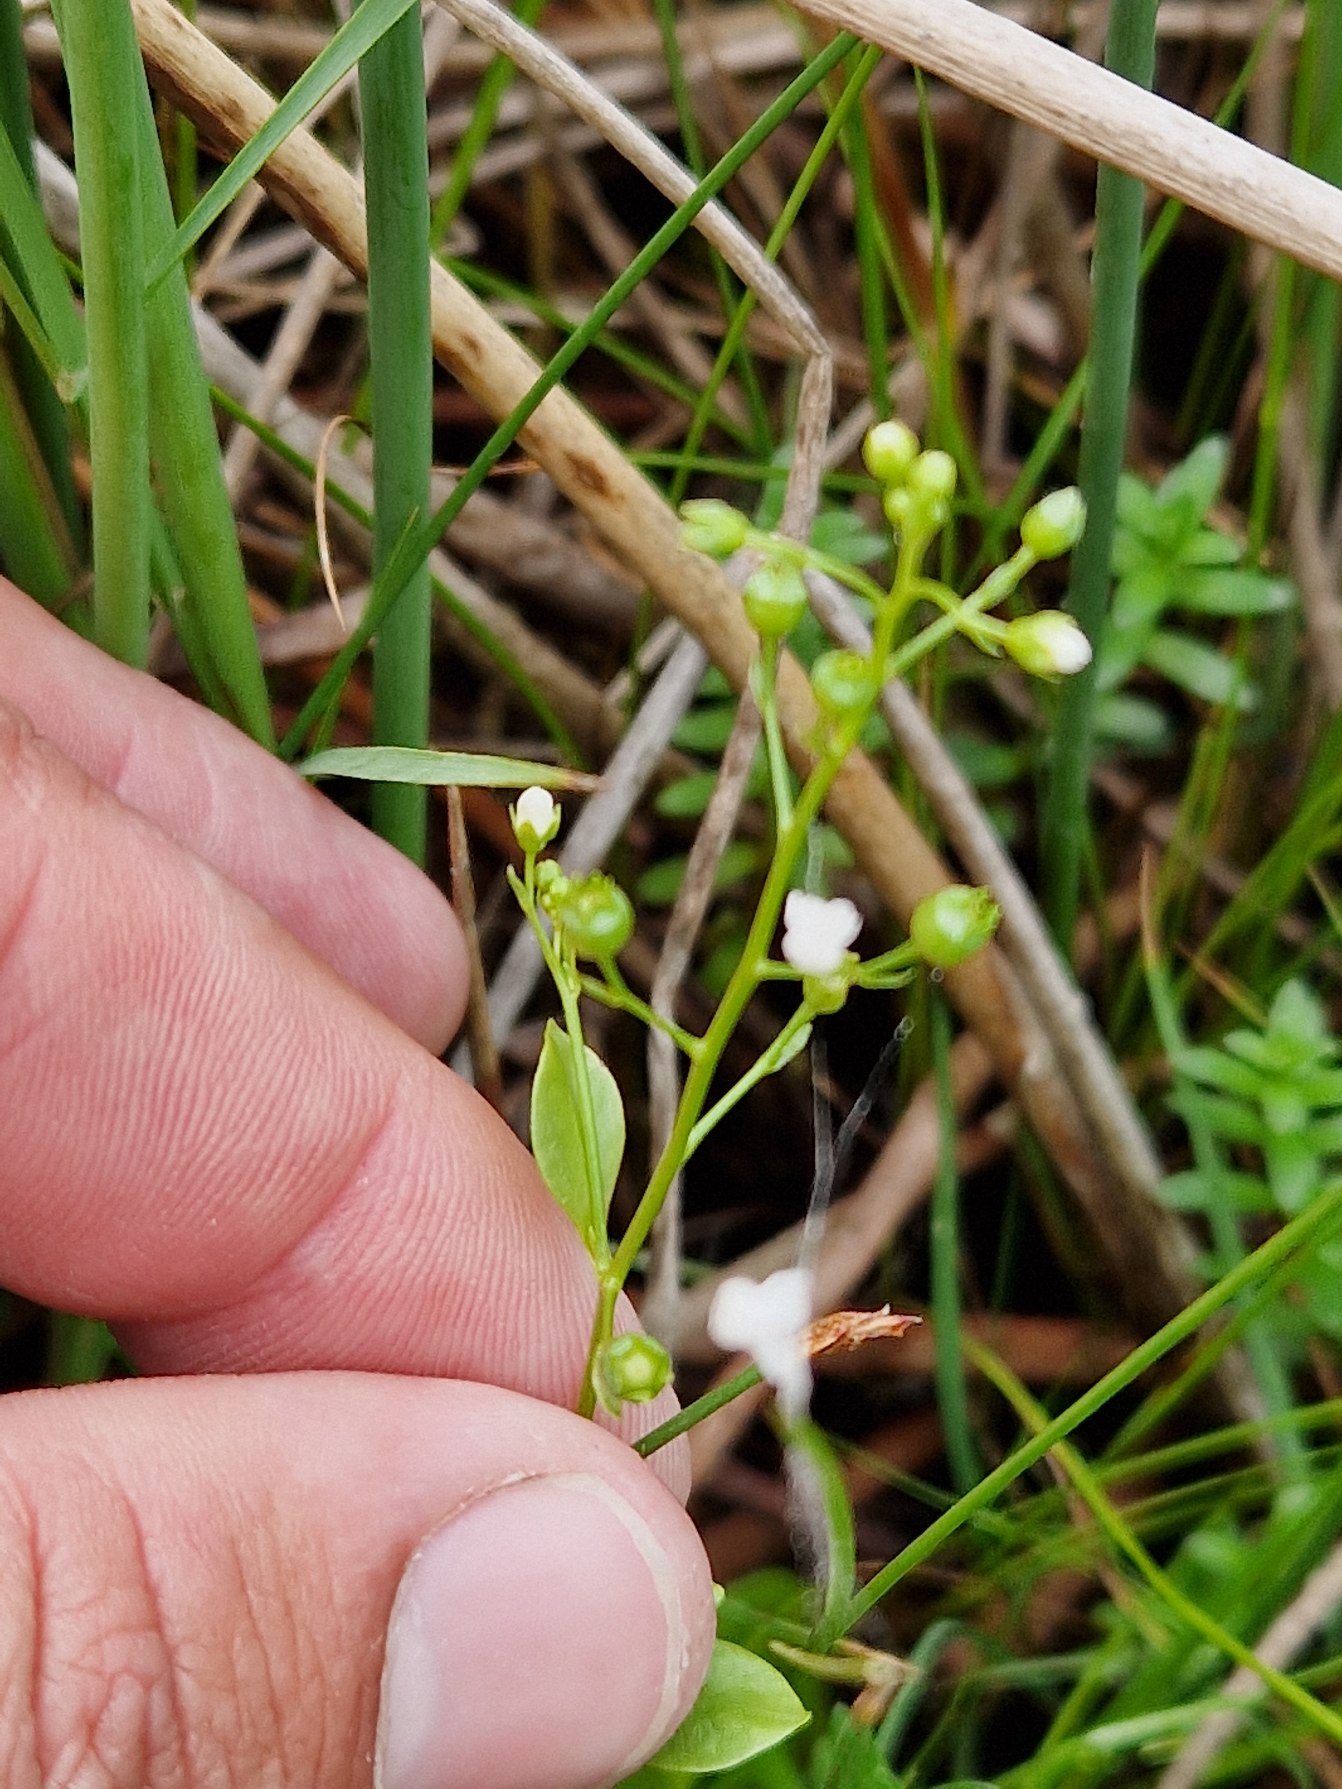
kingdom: Plantae
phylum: Tracheophyta
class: Magnoliopsida
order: Ericales
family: Primulaceae
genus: Samolus
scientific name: Samolus valerandi
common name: Samel
